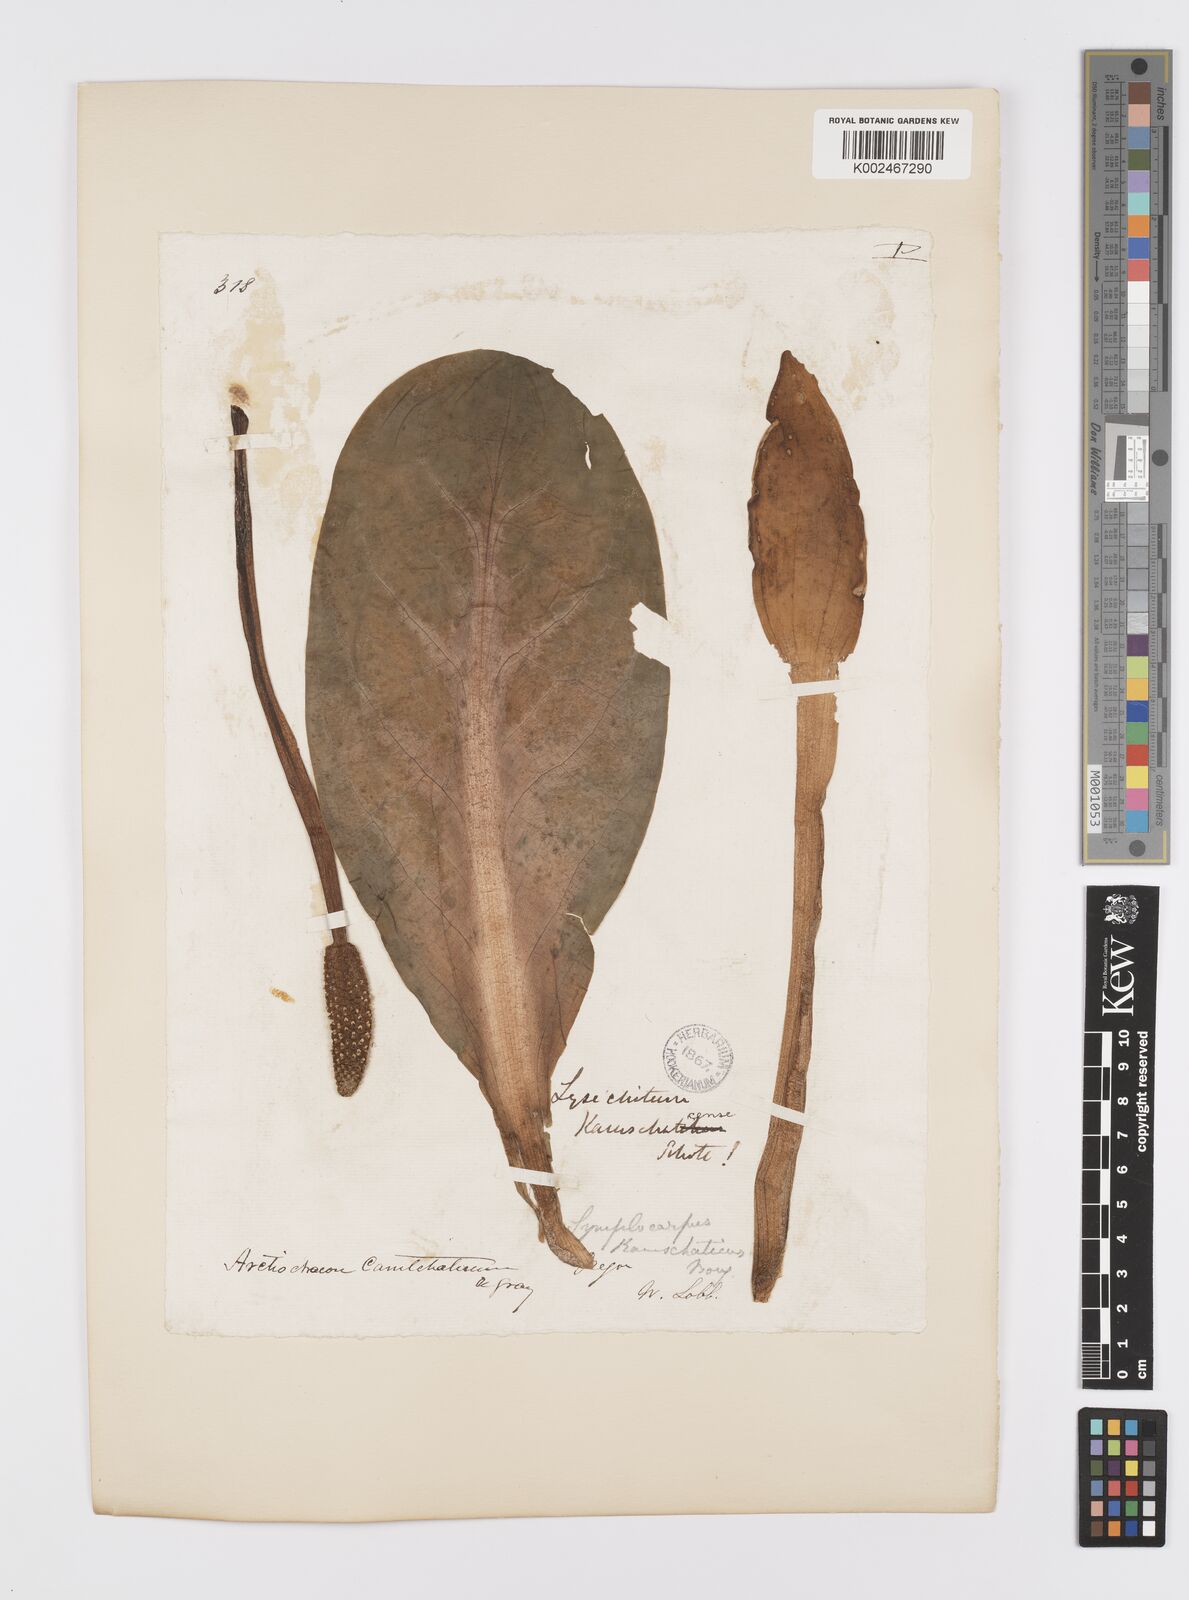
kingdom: Plantae
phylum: Tracheophyta
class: Liliopsida
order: Alismatales
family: Araceae
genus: Lysichiton
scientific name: Lysichiton americanus
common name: American skunk cabbage
